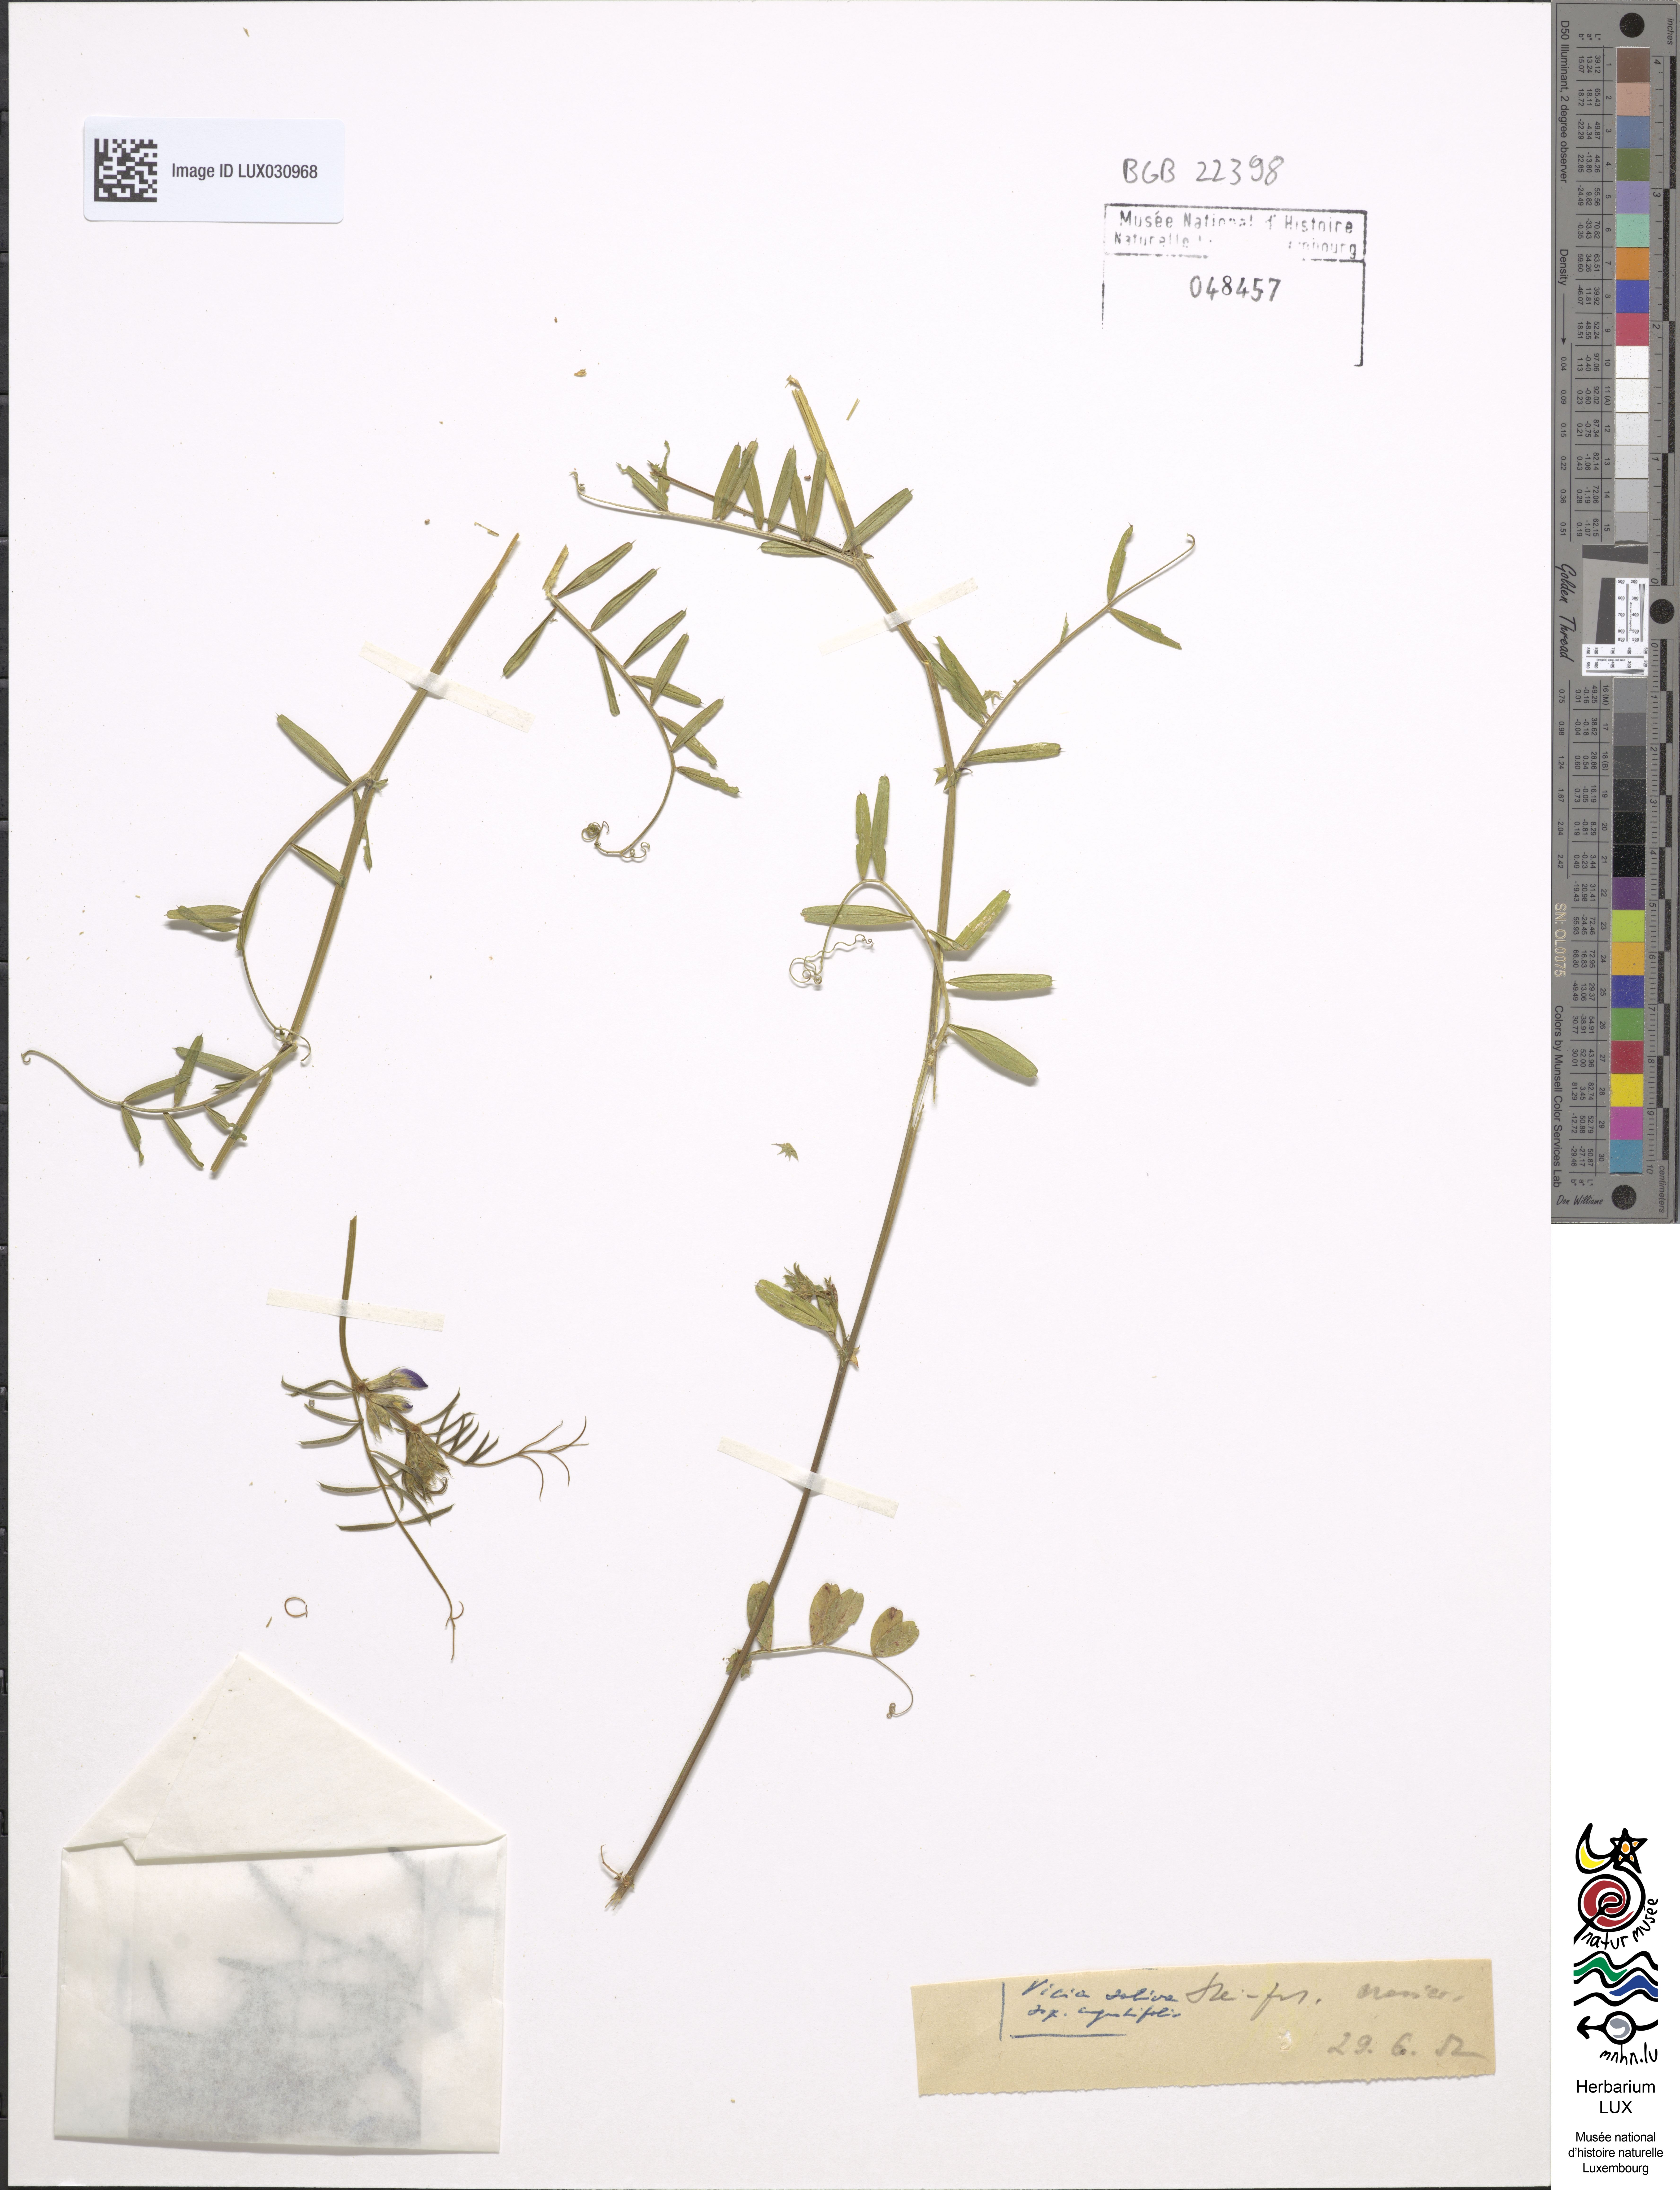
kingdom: Plantae
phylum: Tracheophyta
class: Magnoliopsida
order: Fabales
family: Fabaceae
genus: Vicia
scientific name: Vicia sativa
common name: Garden vetch
